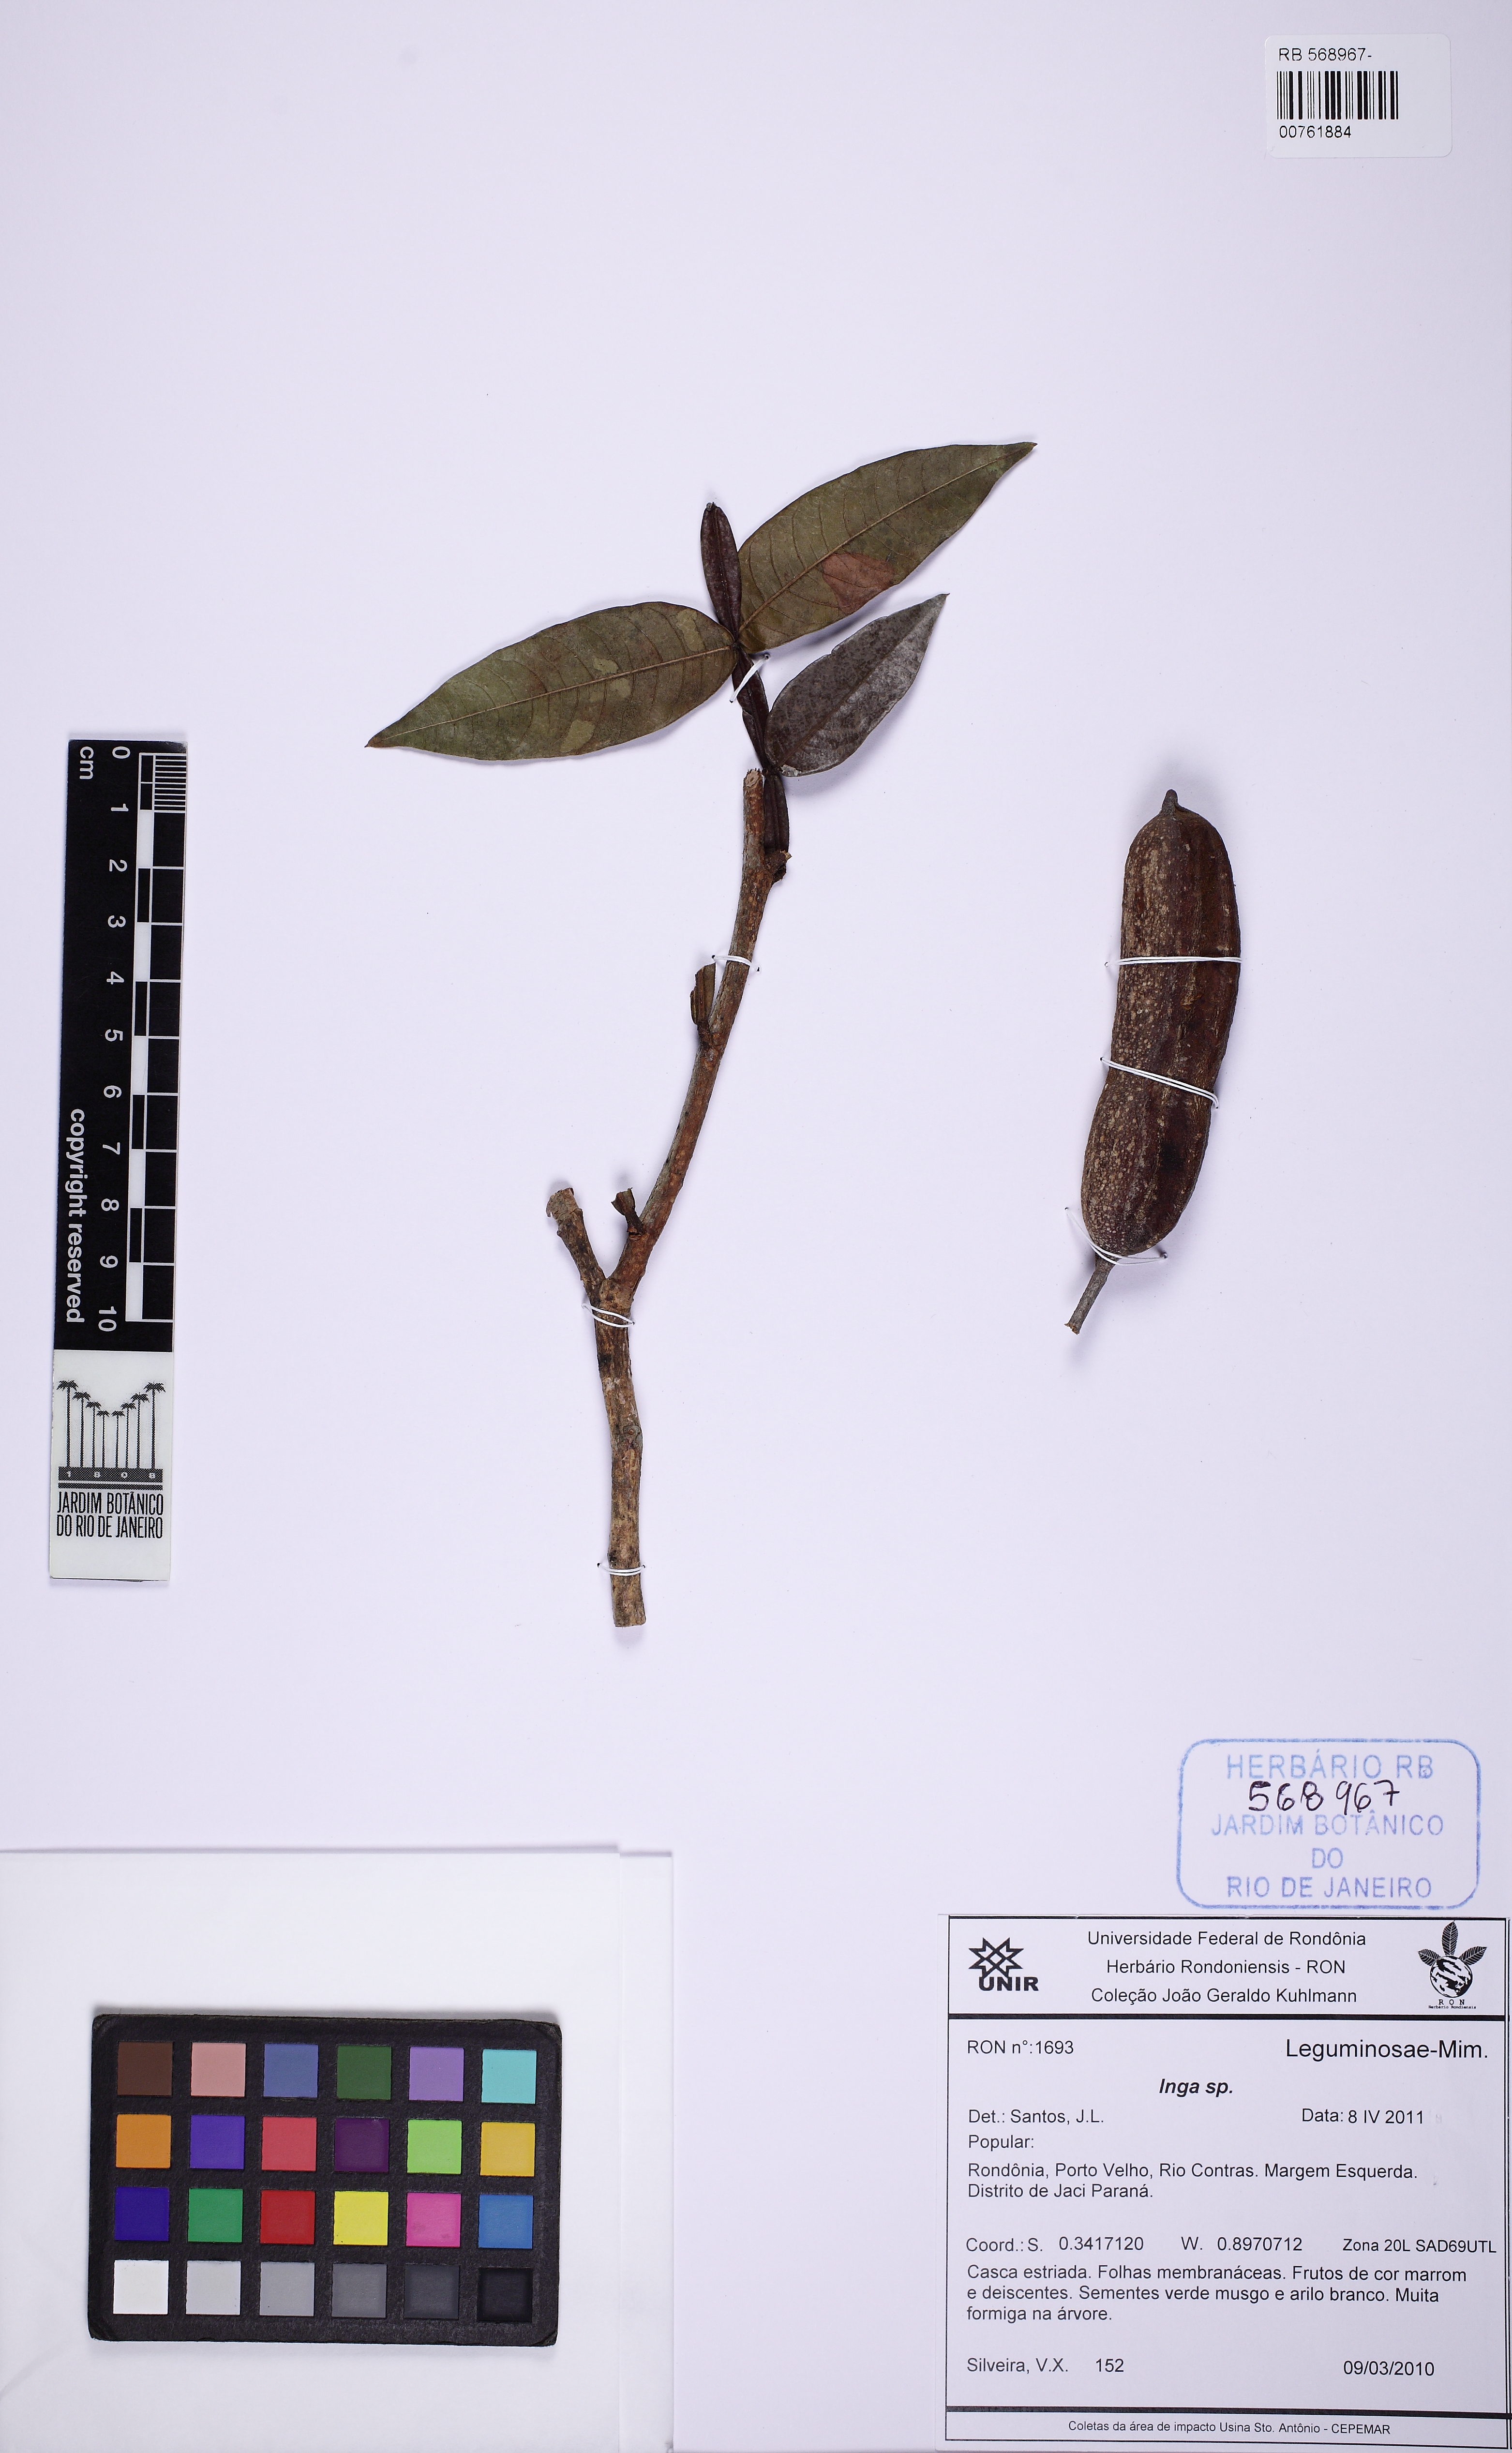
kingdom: Plantae
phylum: Tracheophyta
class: Magnoliopsida
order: Fabales
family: Fabaceae
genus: Inga
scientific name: Inga
